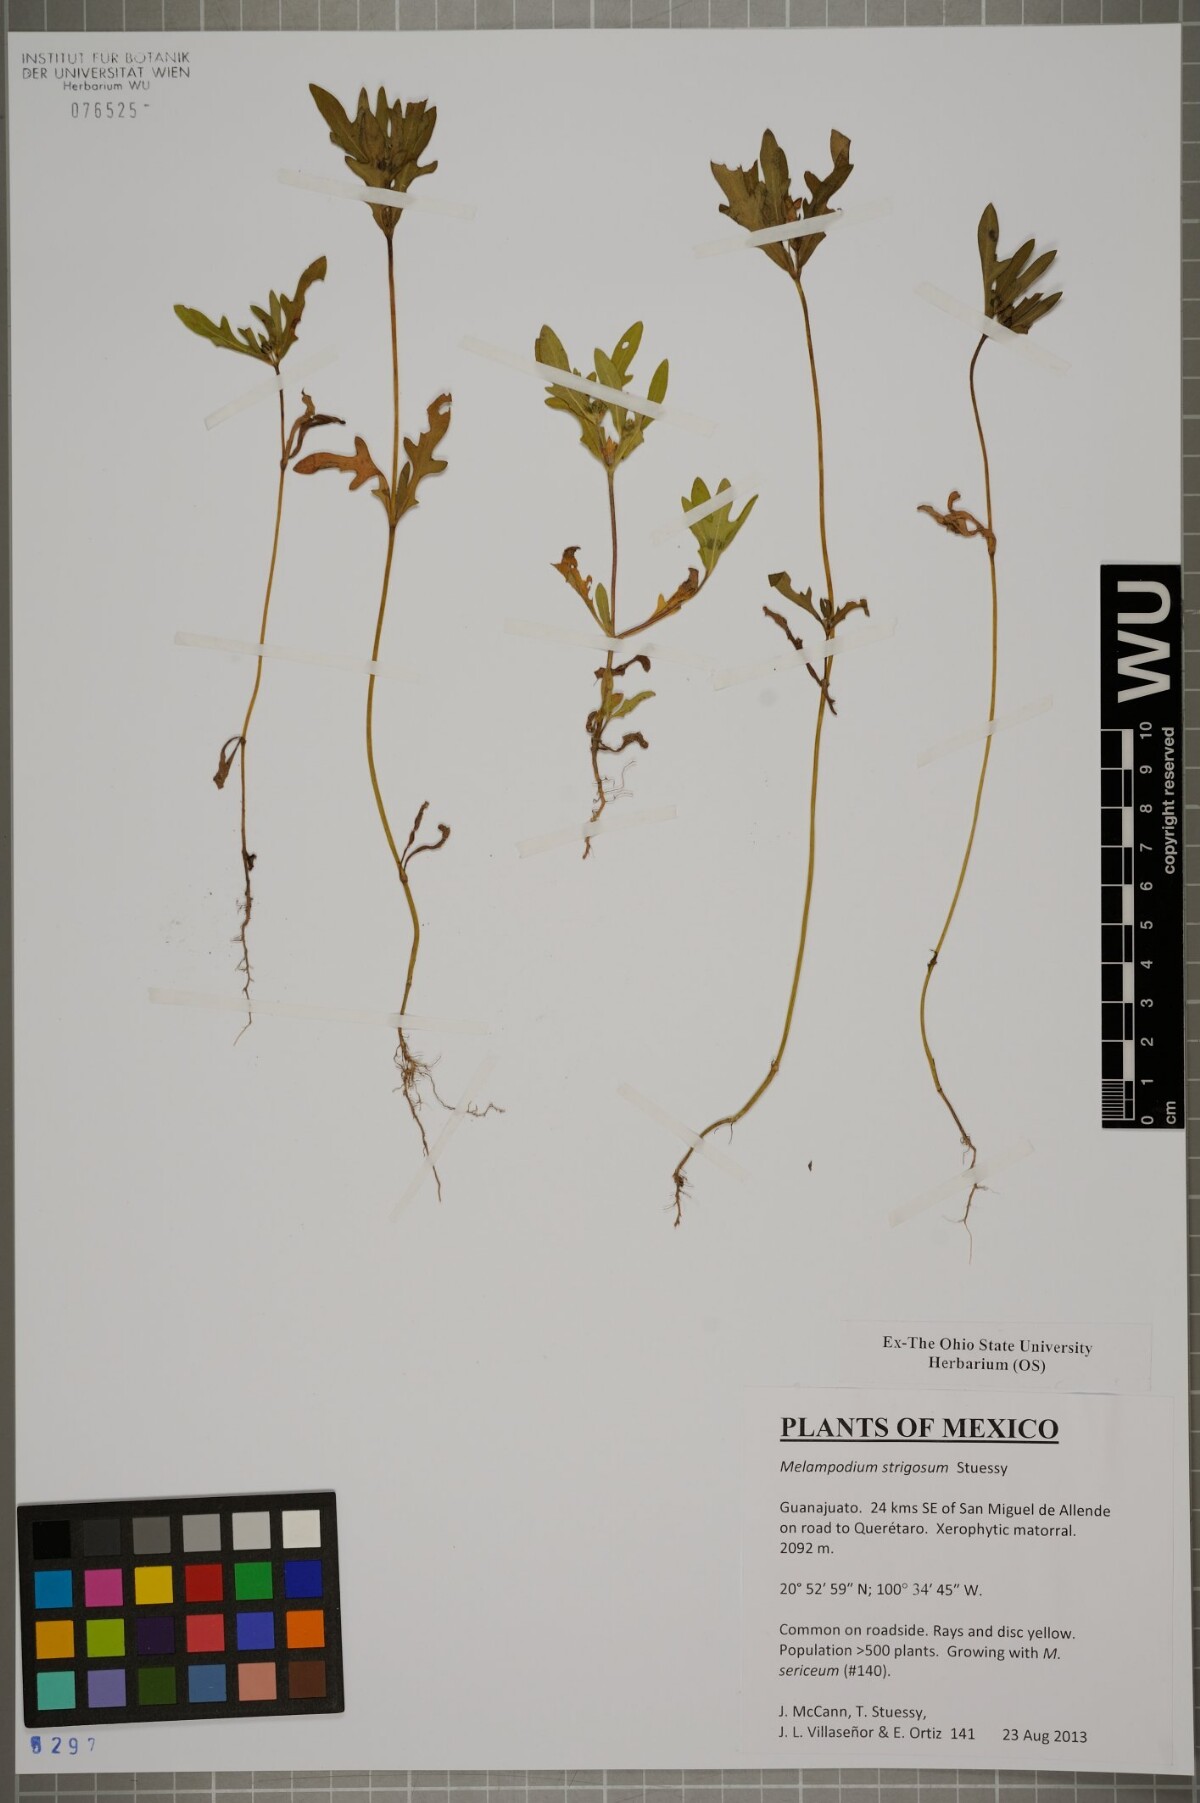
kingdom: Plantae
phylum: Tracheophyta
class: Magnoliopsida
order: Asterales
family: Asteraceae
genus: Melampodium
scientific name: Melampodium strigosum
